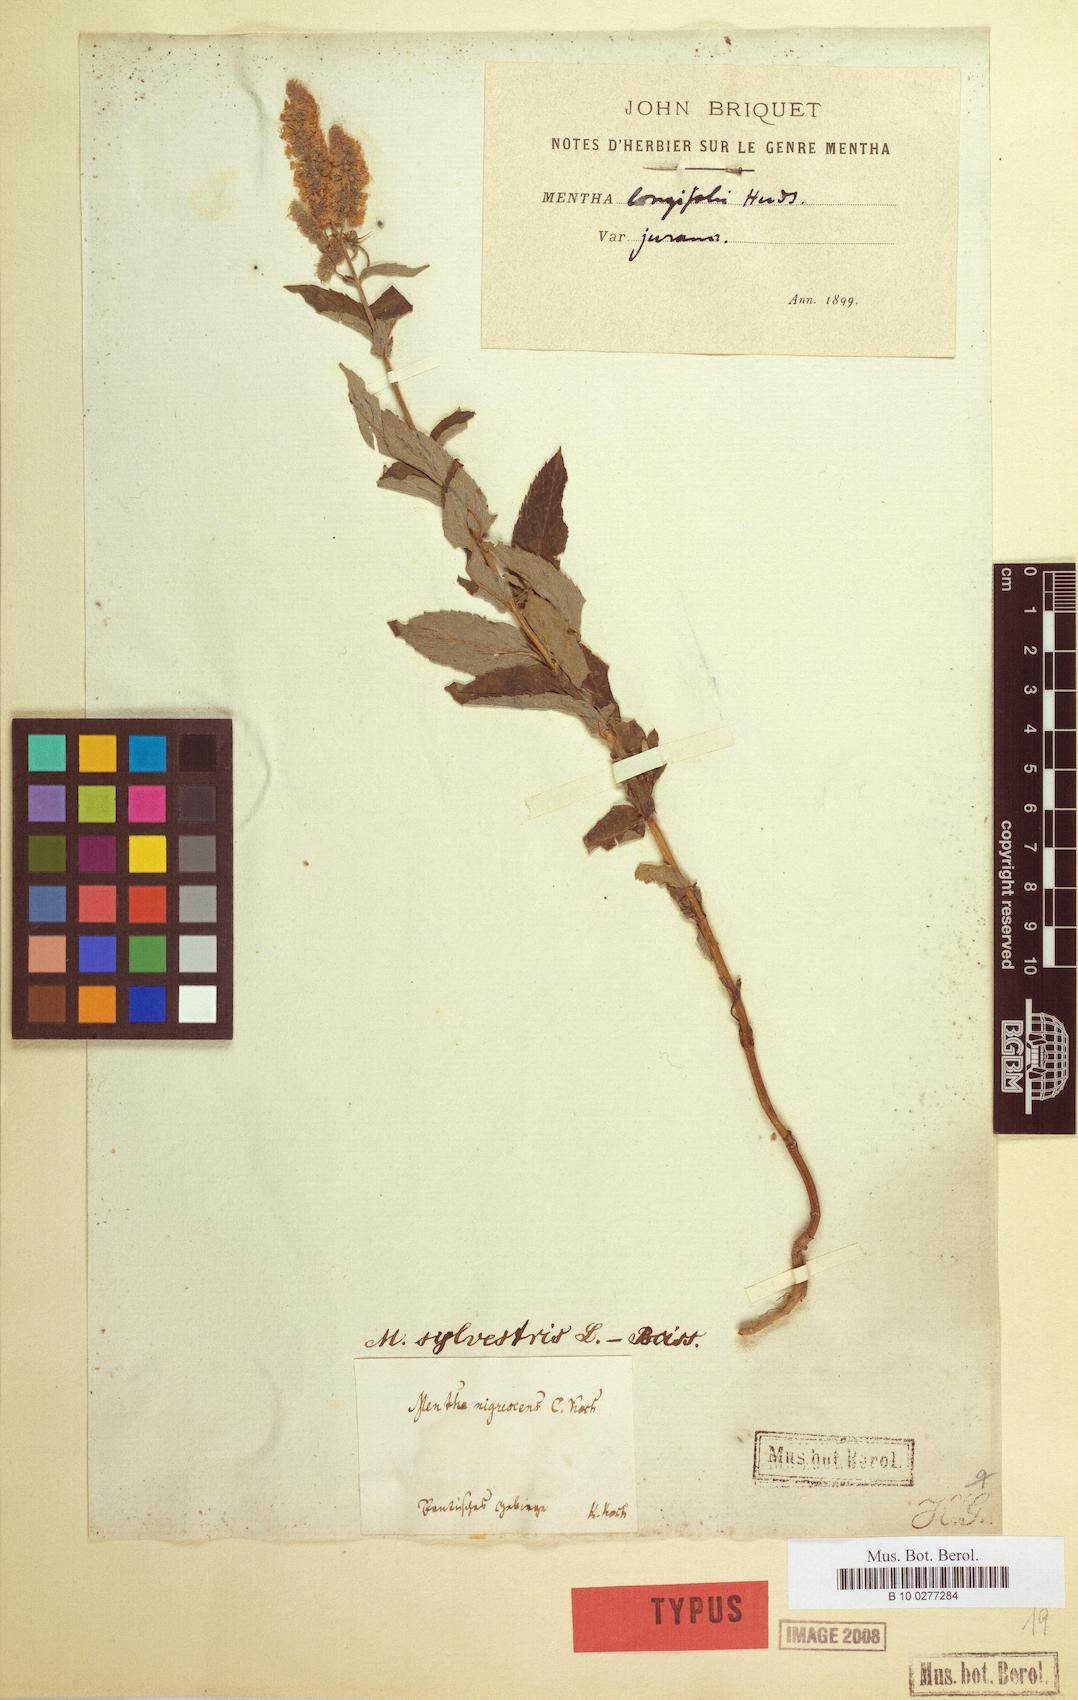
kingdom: Plantae
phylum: Tracheophyta
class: Magnoliopsida
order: Lamiales
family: Lamiaceae
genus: Mentha
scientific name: Mentha longifolia
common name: Horse mint
